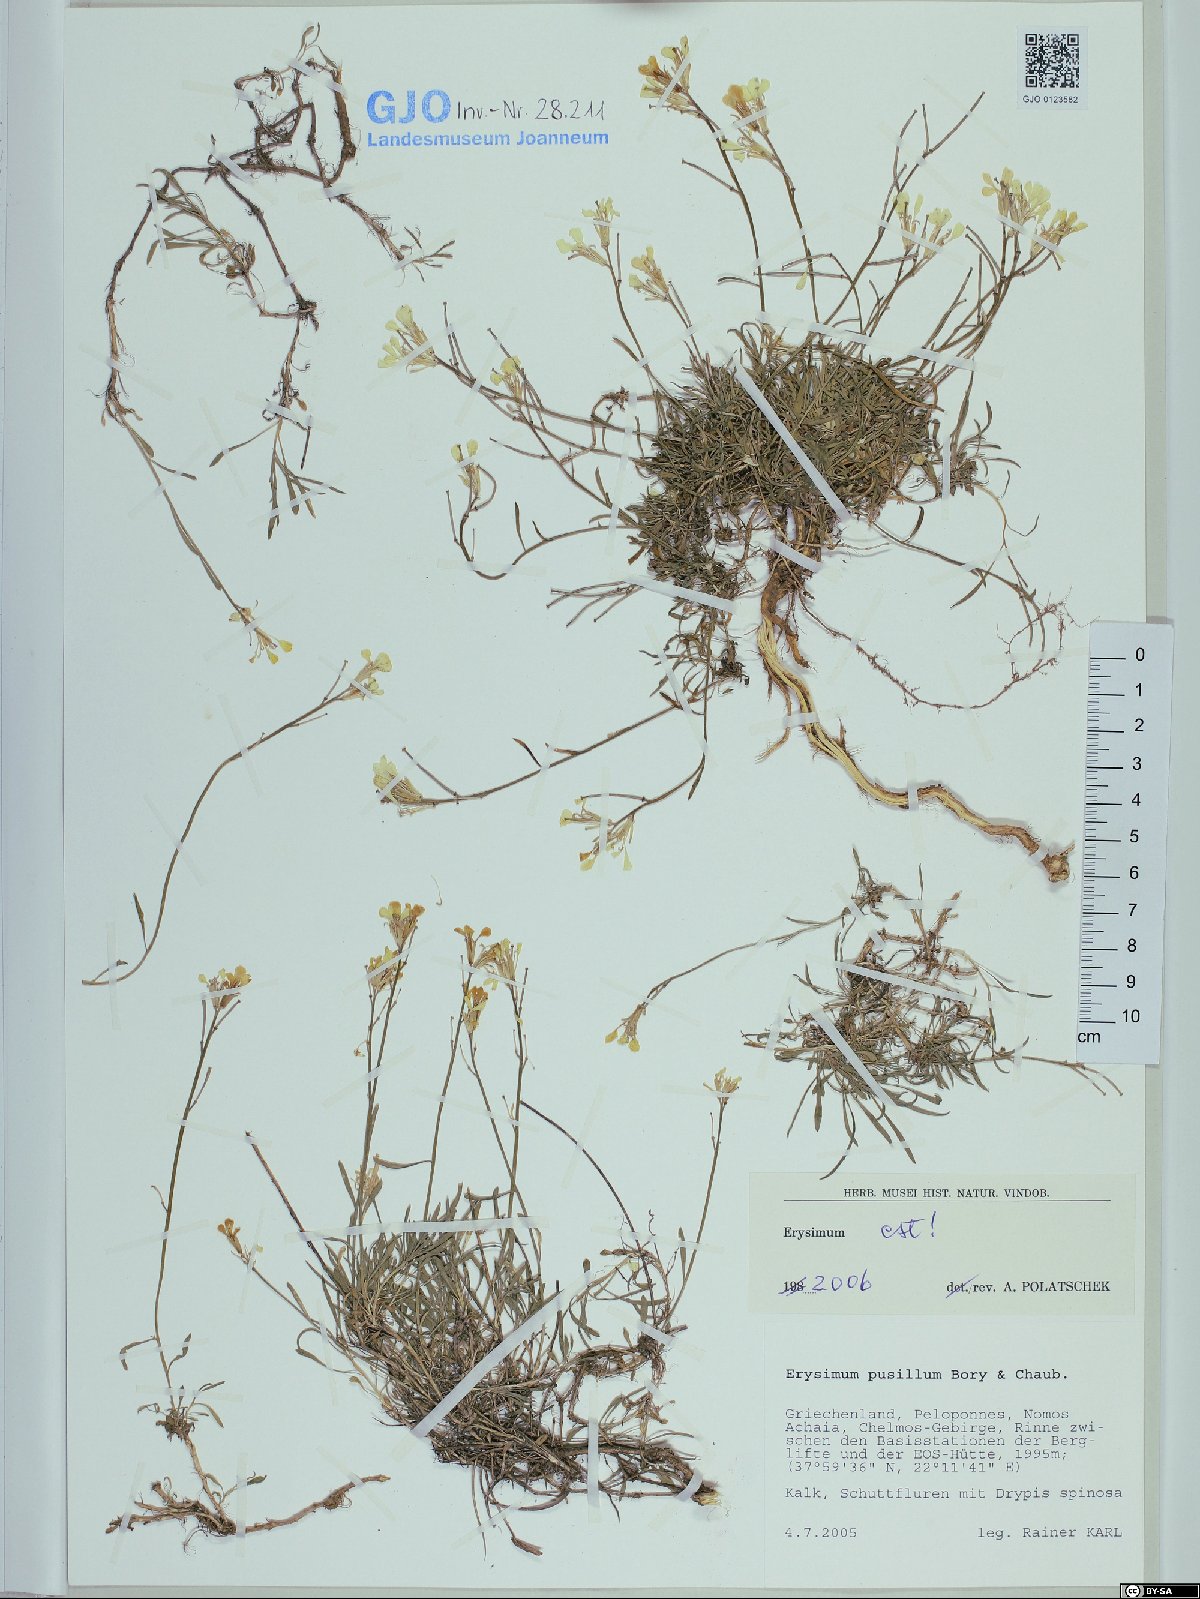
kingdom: Plantae
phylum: Tracheophyta
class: Magnoliopsida
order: Brassicales
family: Brassicaceae
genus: Erysimum
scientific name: Erysimum pusillum
